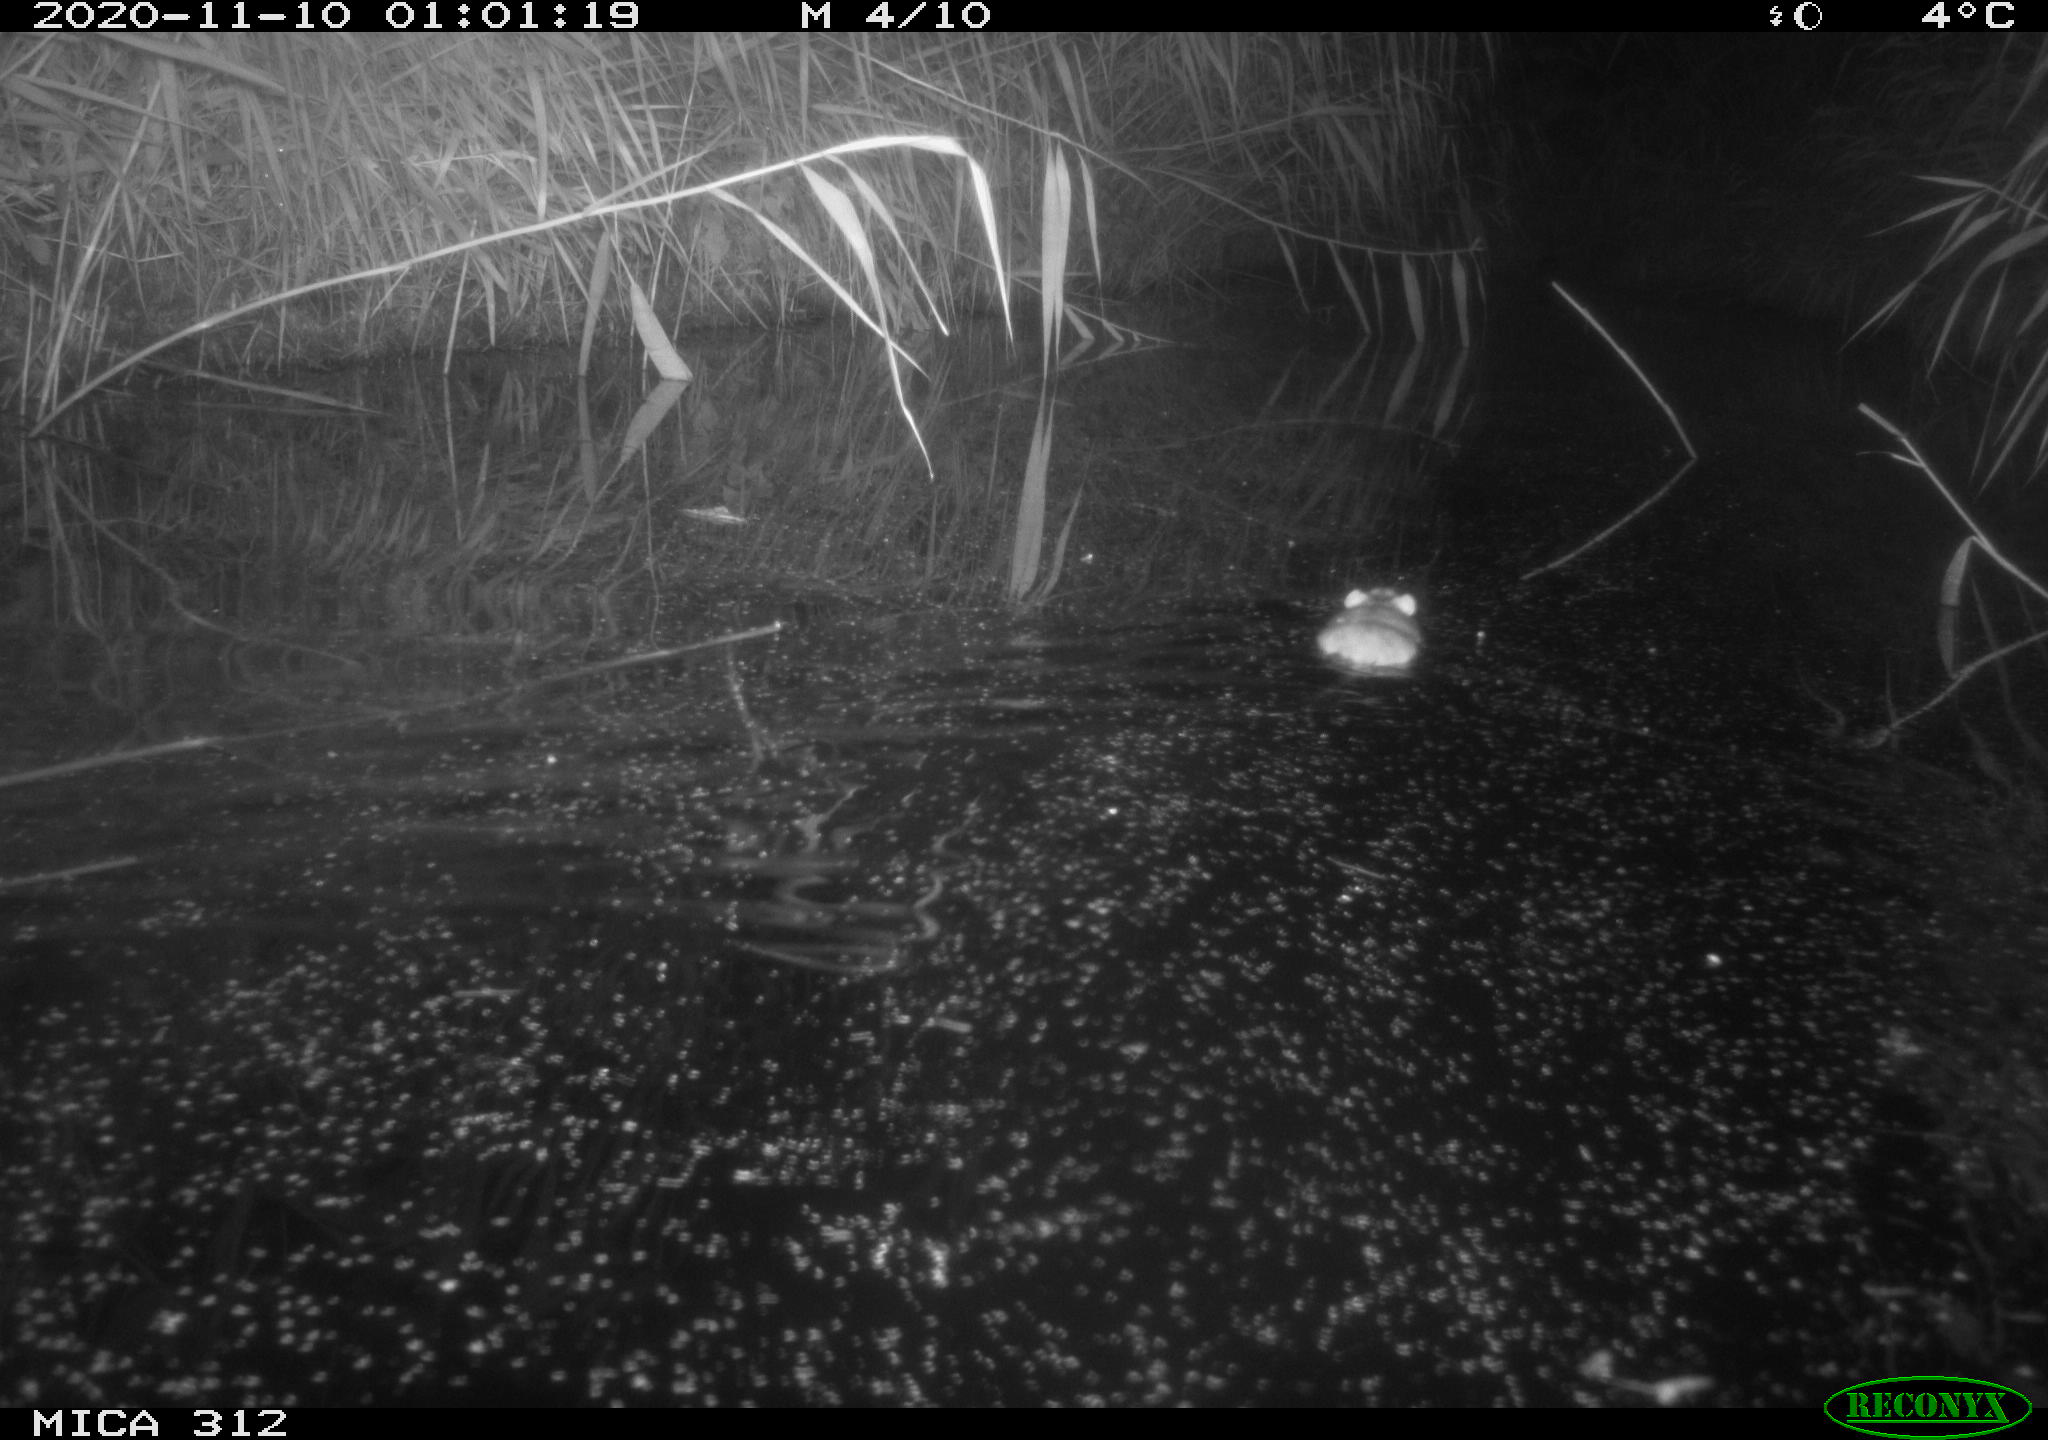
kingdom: Animalia
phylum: Chordata
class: Mammalia
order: Rodentia
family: Muridae
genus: Rattus
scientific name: Rattus norvegicus
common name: Brown rat
